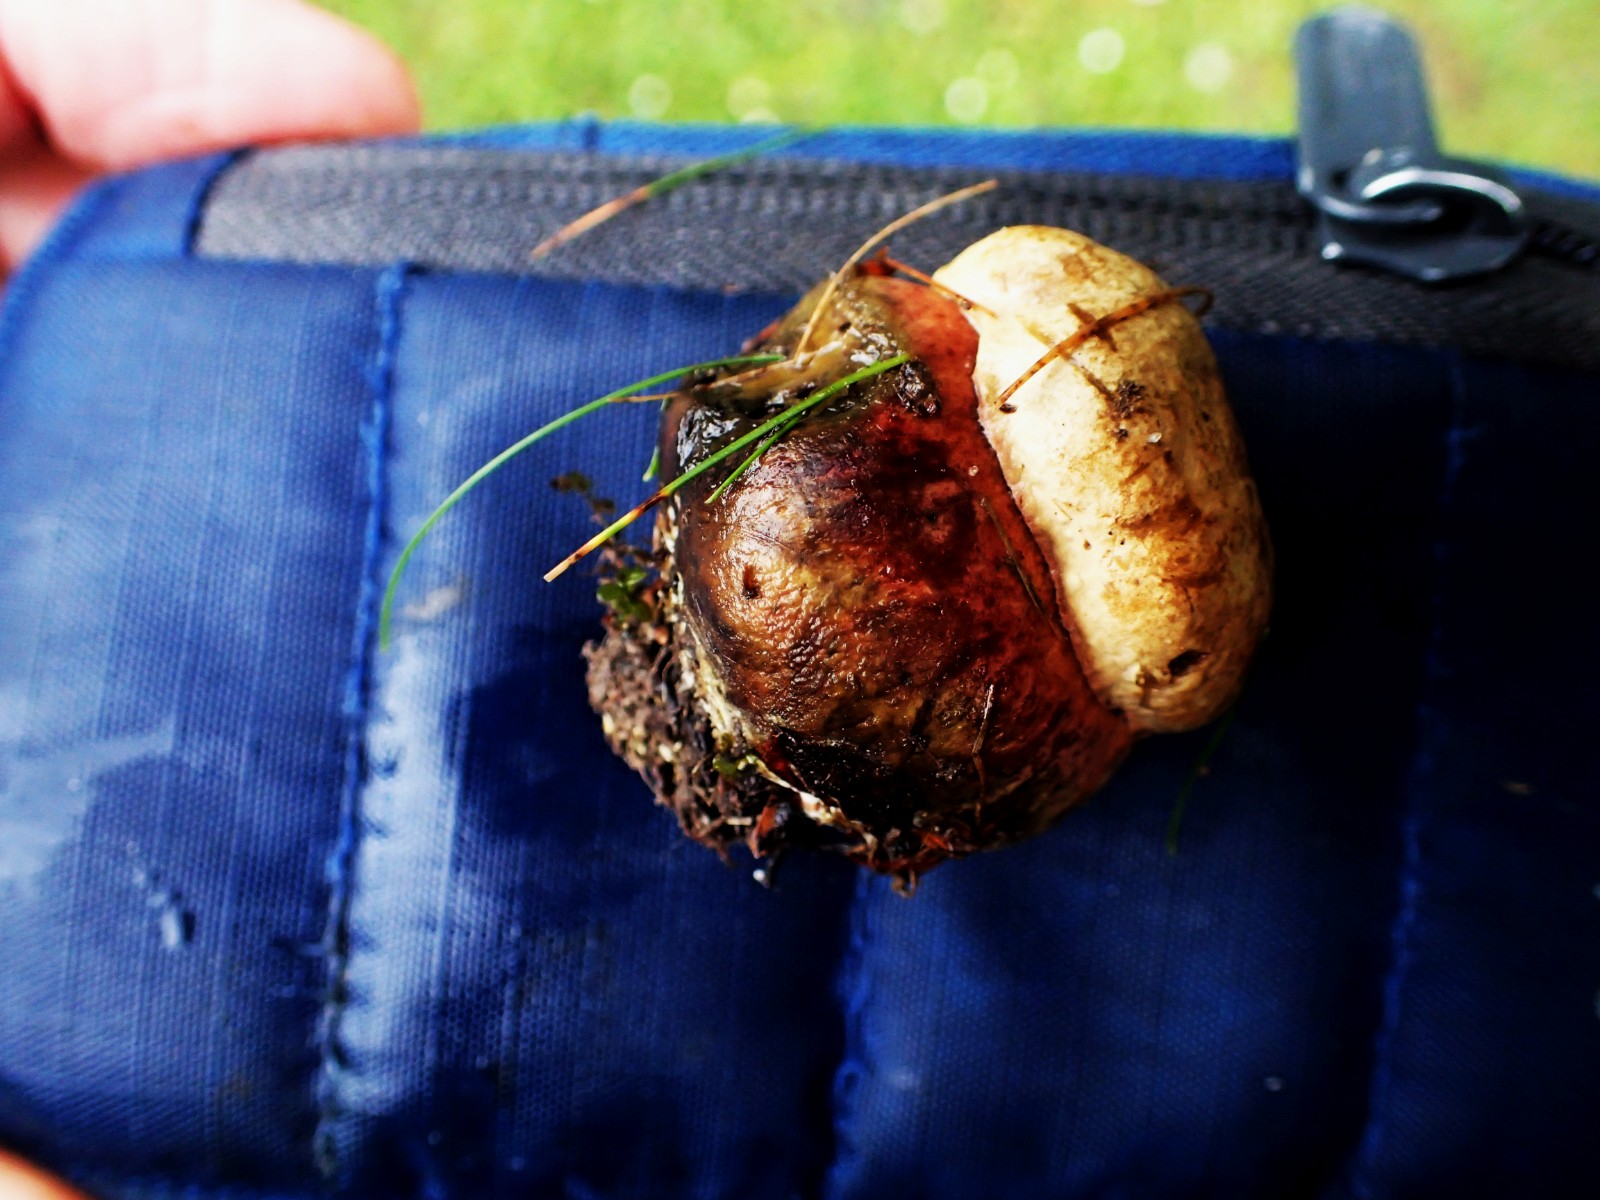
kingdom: Fungi
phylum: Basidiomycota
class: Agaricomycetes
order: Boletales
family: Boletaceae
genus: Suillellus
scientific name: Suillellus luridus
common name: netstokket indigorørhat
